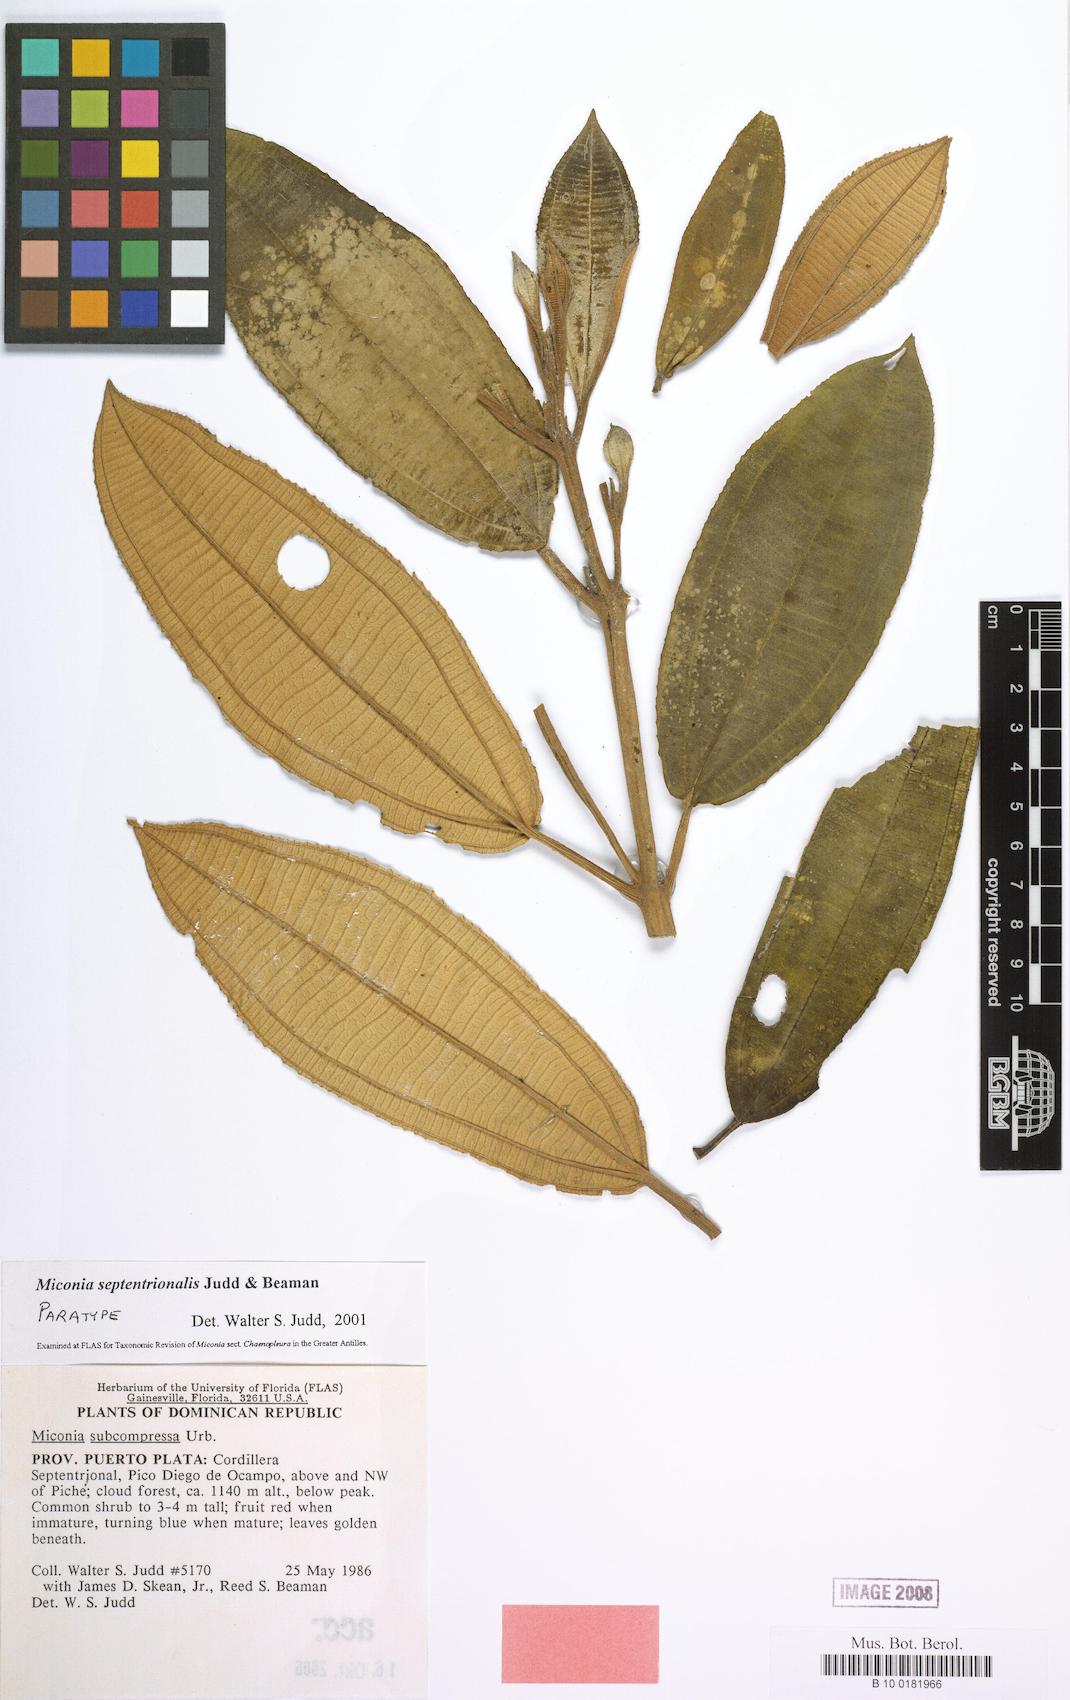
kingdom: Plantae
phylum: Tracheophyta
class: Magnoliopsida
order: Myrtales
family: Melastomataceae
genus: Miconia
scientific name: Miconia septentrionalis
